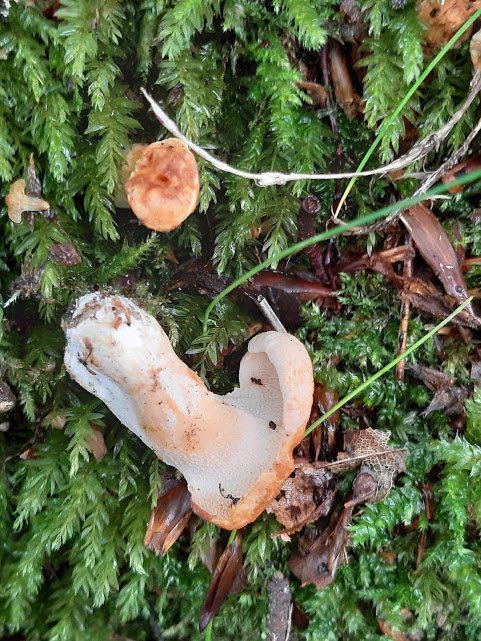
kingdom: Fungi
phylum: Basidiomycota
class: Agaricomycetes
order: Cantharellales
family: Hydnaceae
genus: Hydnum
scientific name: Hydnum
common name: pigsvamp
